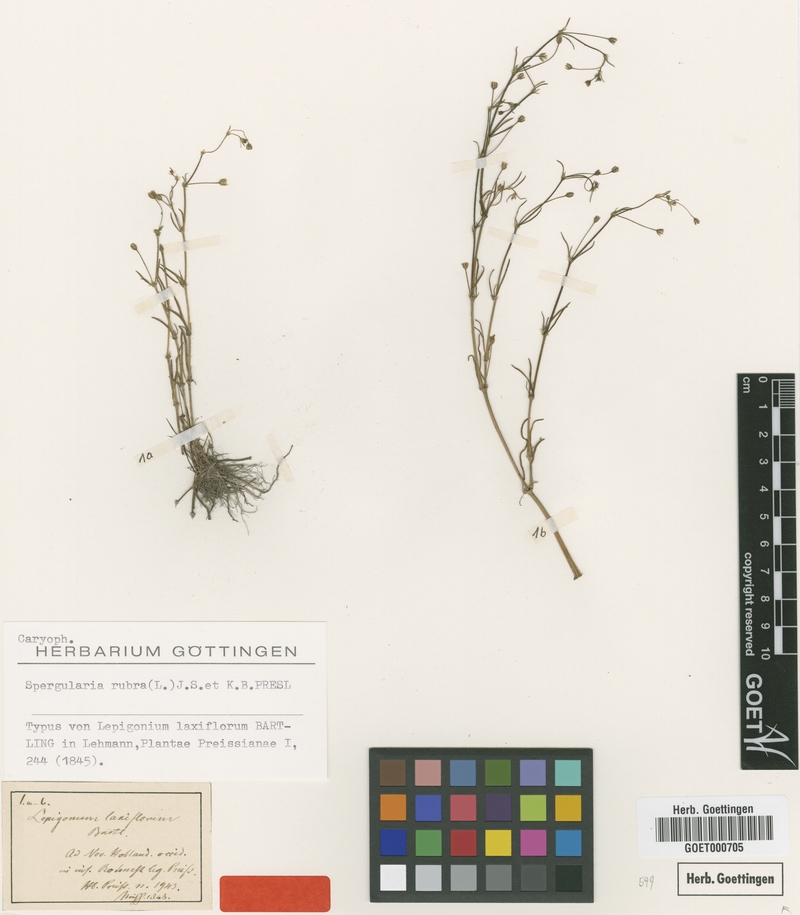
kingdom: Plantae
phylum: Tracheophyta
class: Magnoliopsida
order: Caryophyllales
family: Caryophyllaceae
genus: Spergularia
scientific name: Spergularia rubra
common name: Red sand-spurrey
